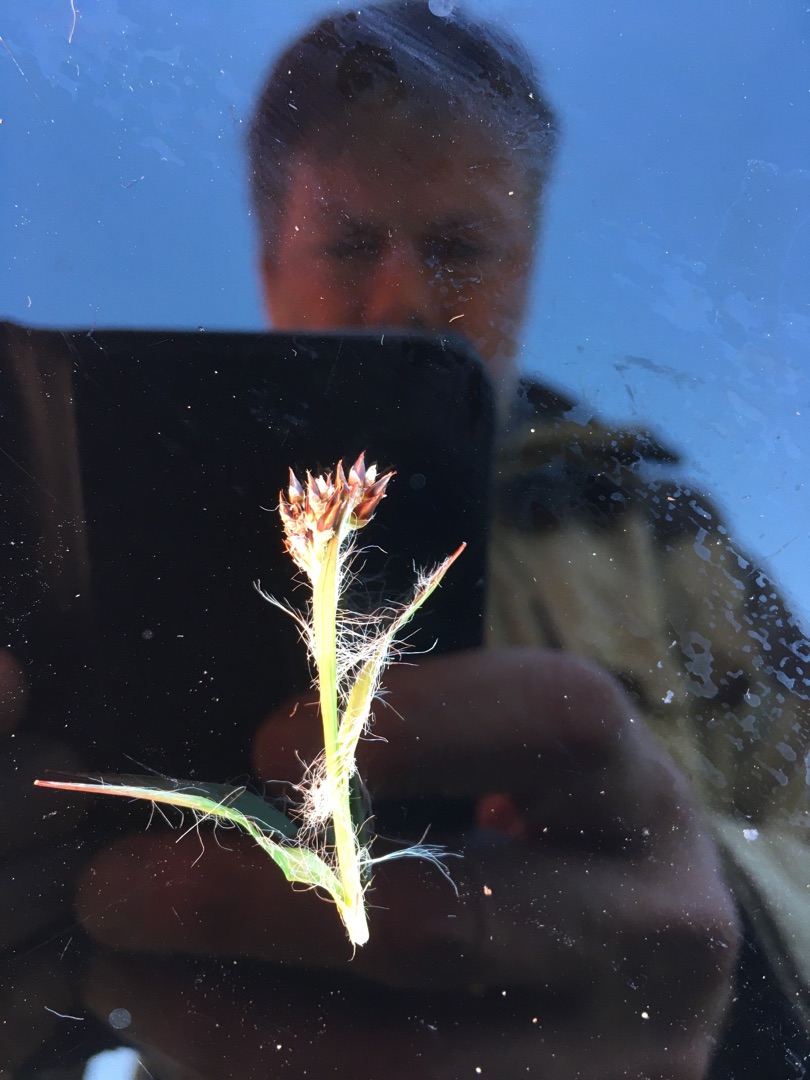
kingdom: Plantae
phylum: Tracheophyta
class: Liliopsida
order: Poales
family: Juncaceae
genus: Luzula
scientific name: Luzula campestris
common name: Mark-frytle
